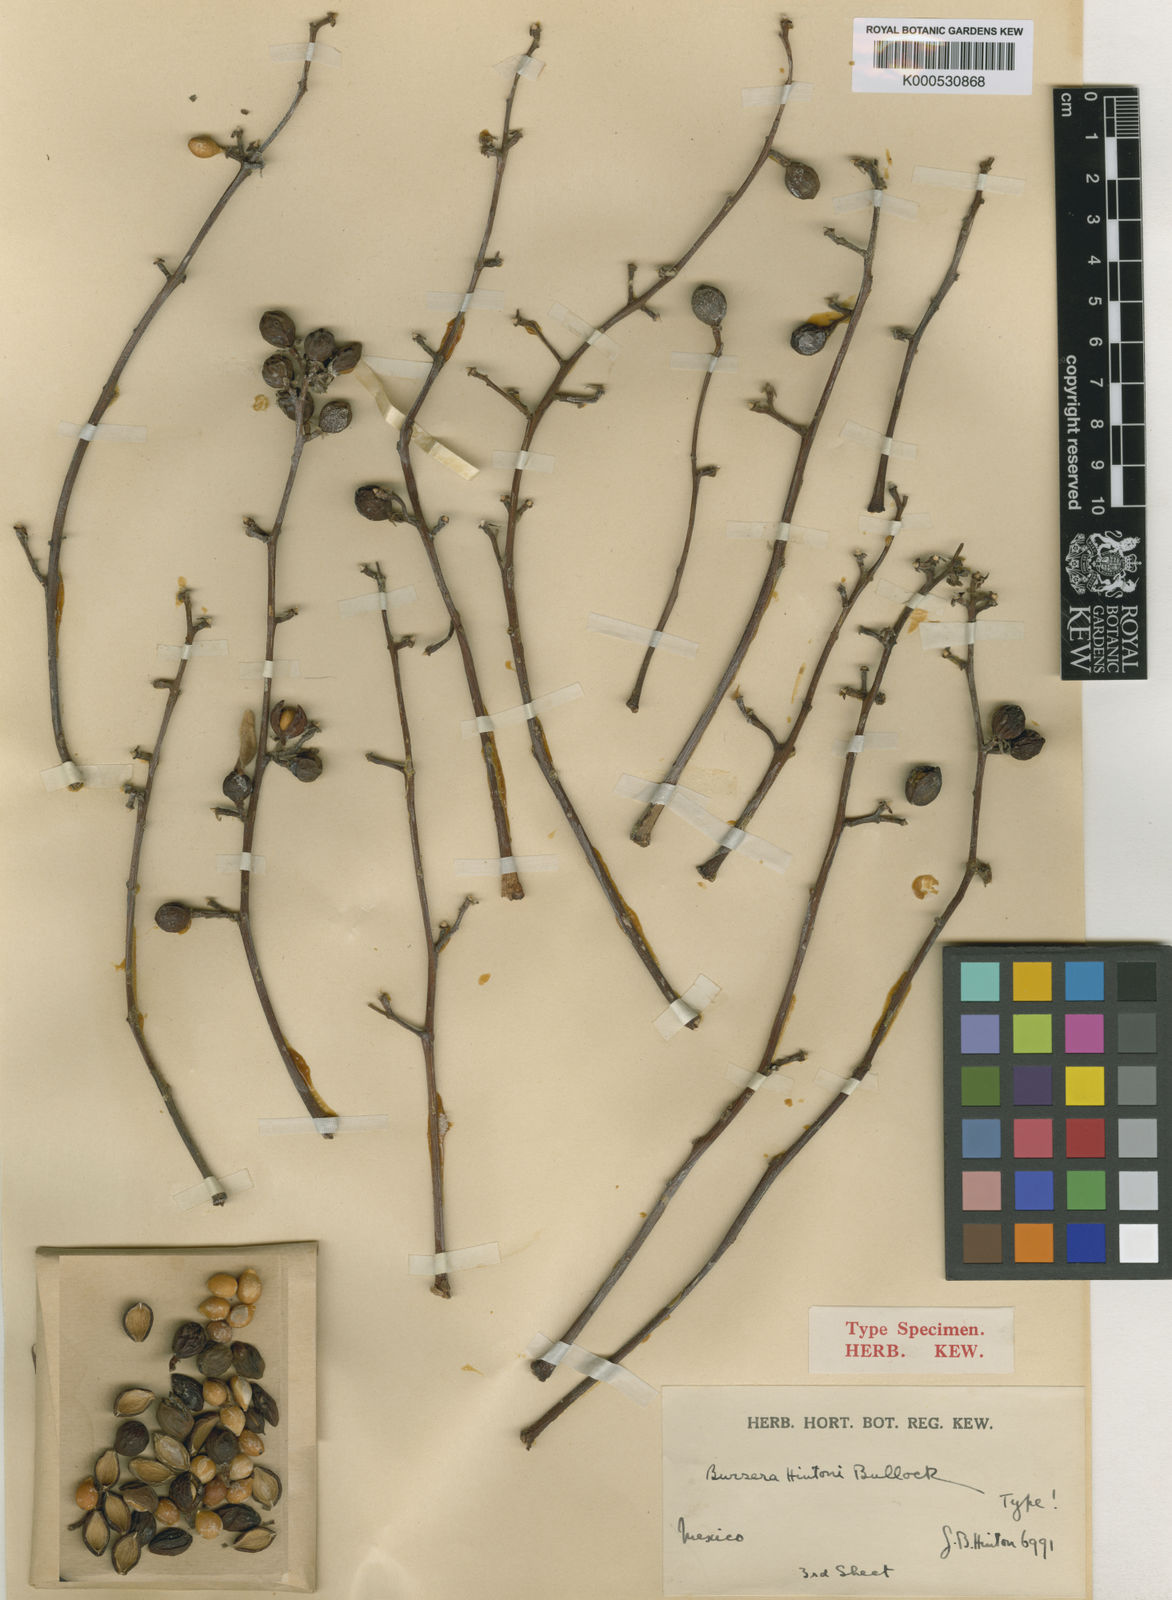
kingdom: Plantae
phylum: Tracheophyta
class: Magnoliopsida
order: Sapindales
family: Burseraceae
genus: Bursera
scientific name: Bursera hintonii
